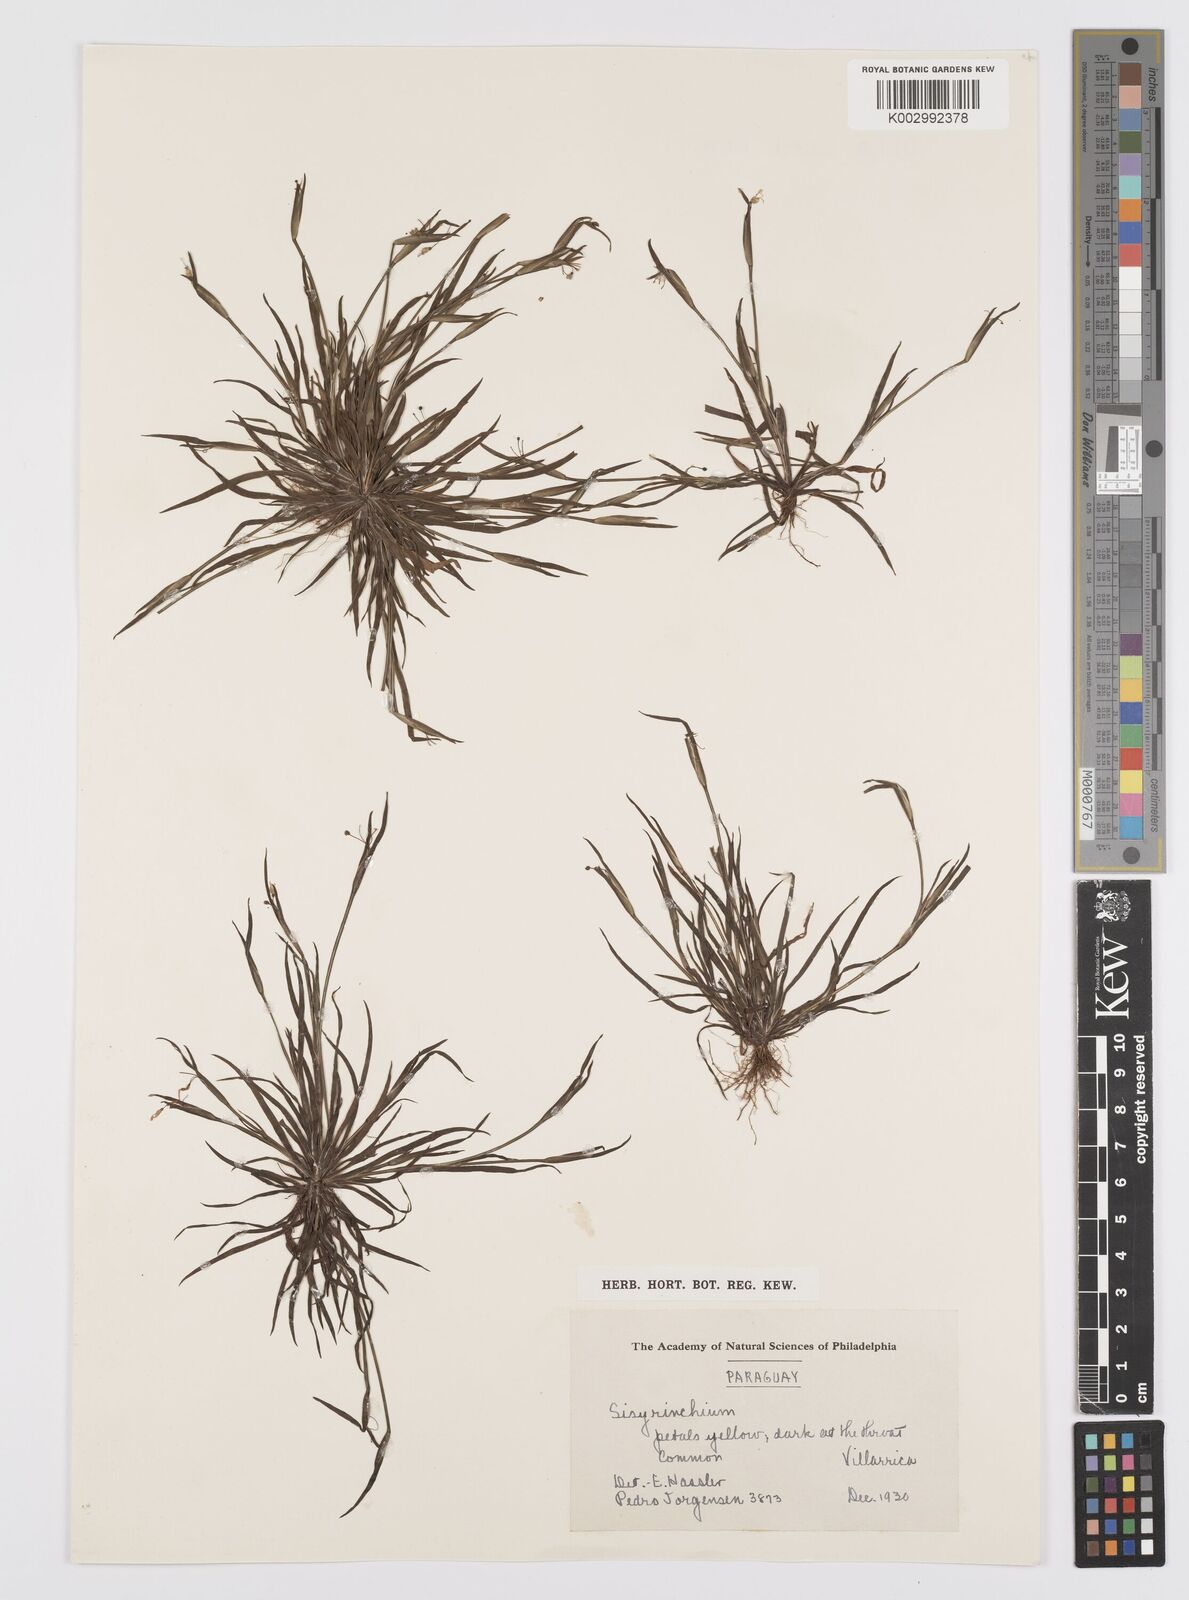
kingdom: Plantae
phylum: Tracheophyta
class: Liliopsida
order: Asparagales
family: Iridaceae
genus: Sisyrinchium
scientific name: Sisyrinchium
